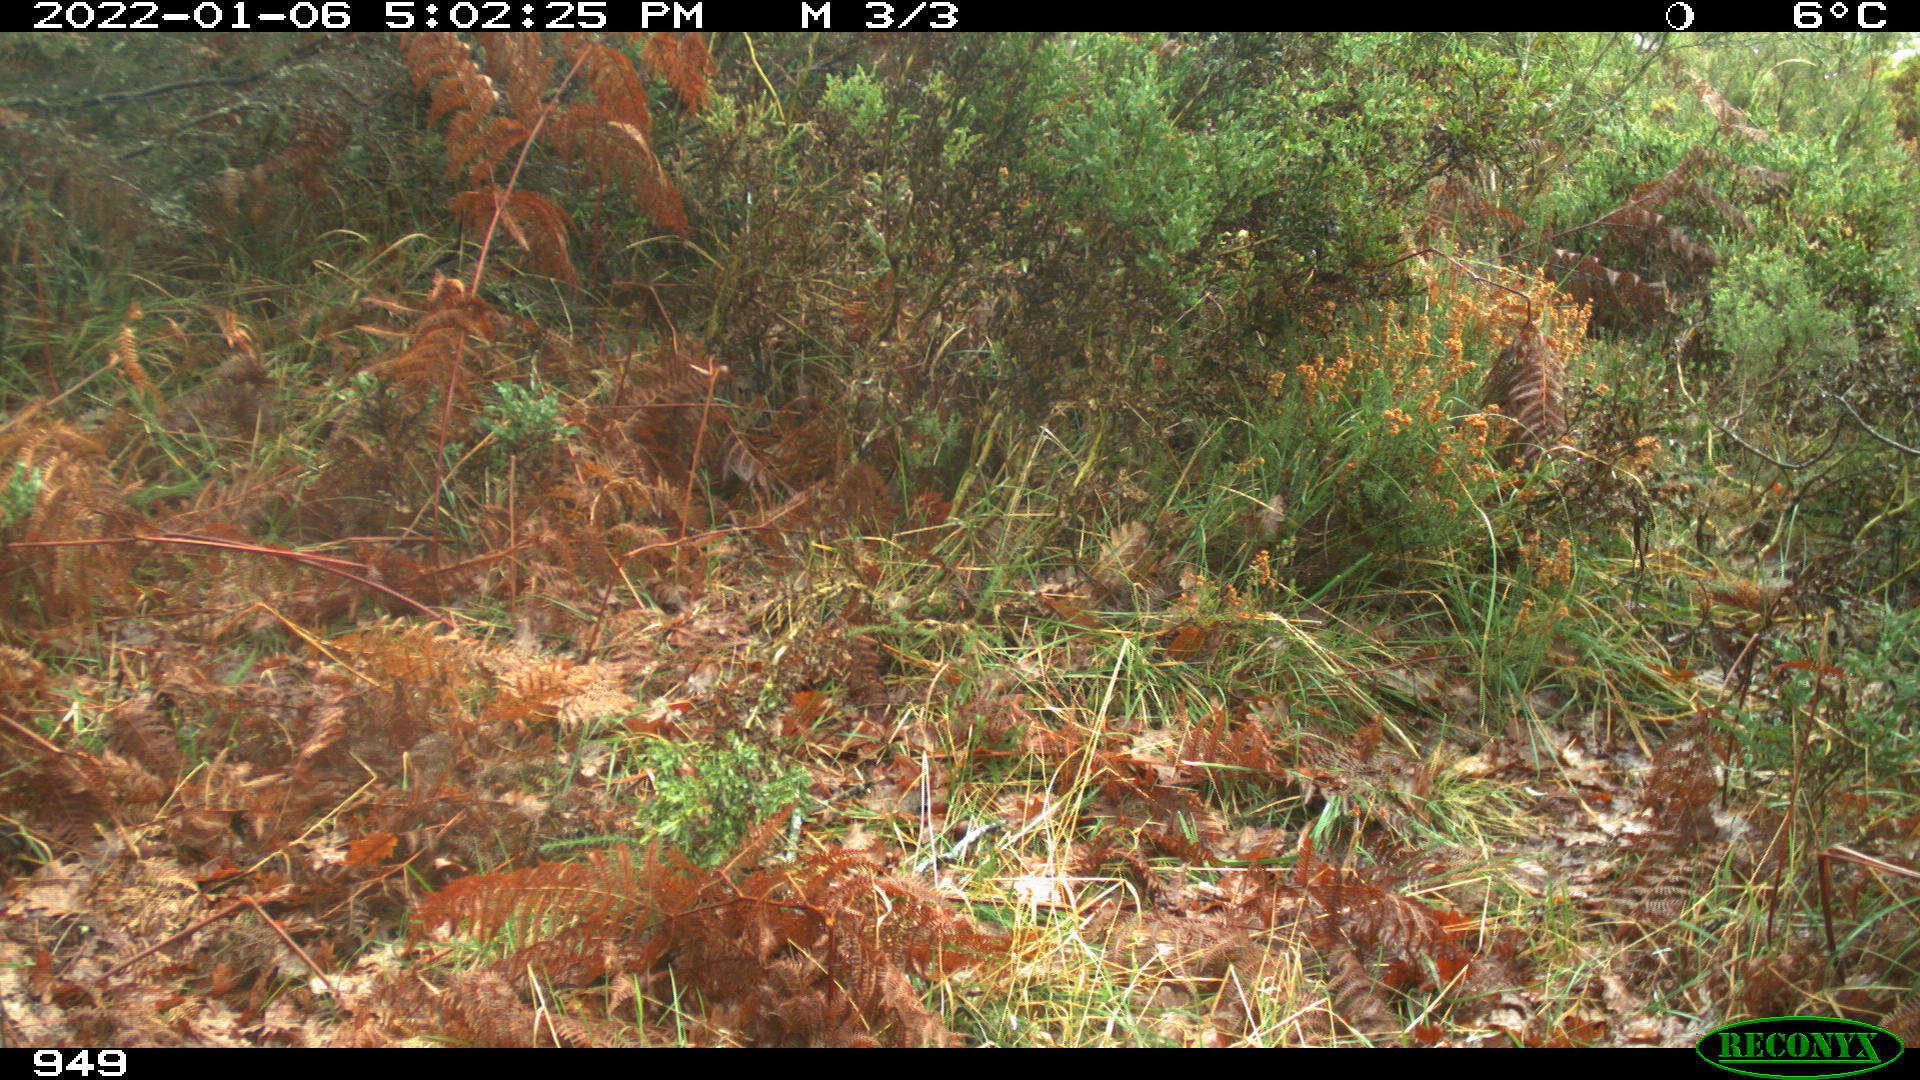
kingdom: Animalia
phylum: Chordata
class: Mammalia
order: Artiodactyla
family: Suidae
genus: Sus
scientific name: Sus scrofa
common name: Wild boar
